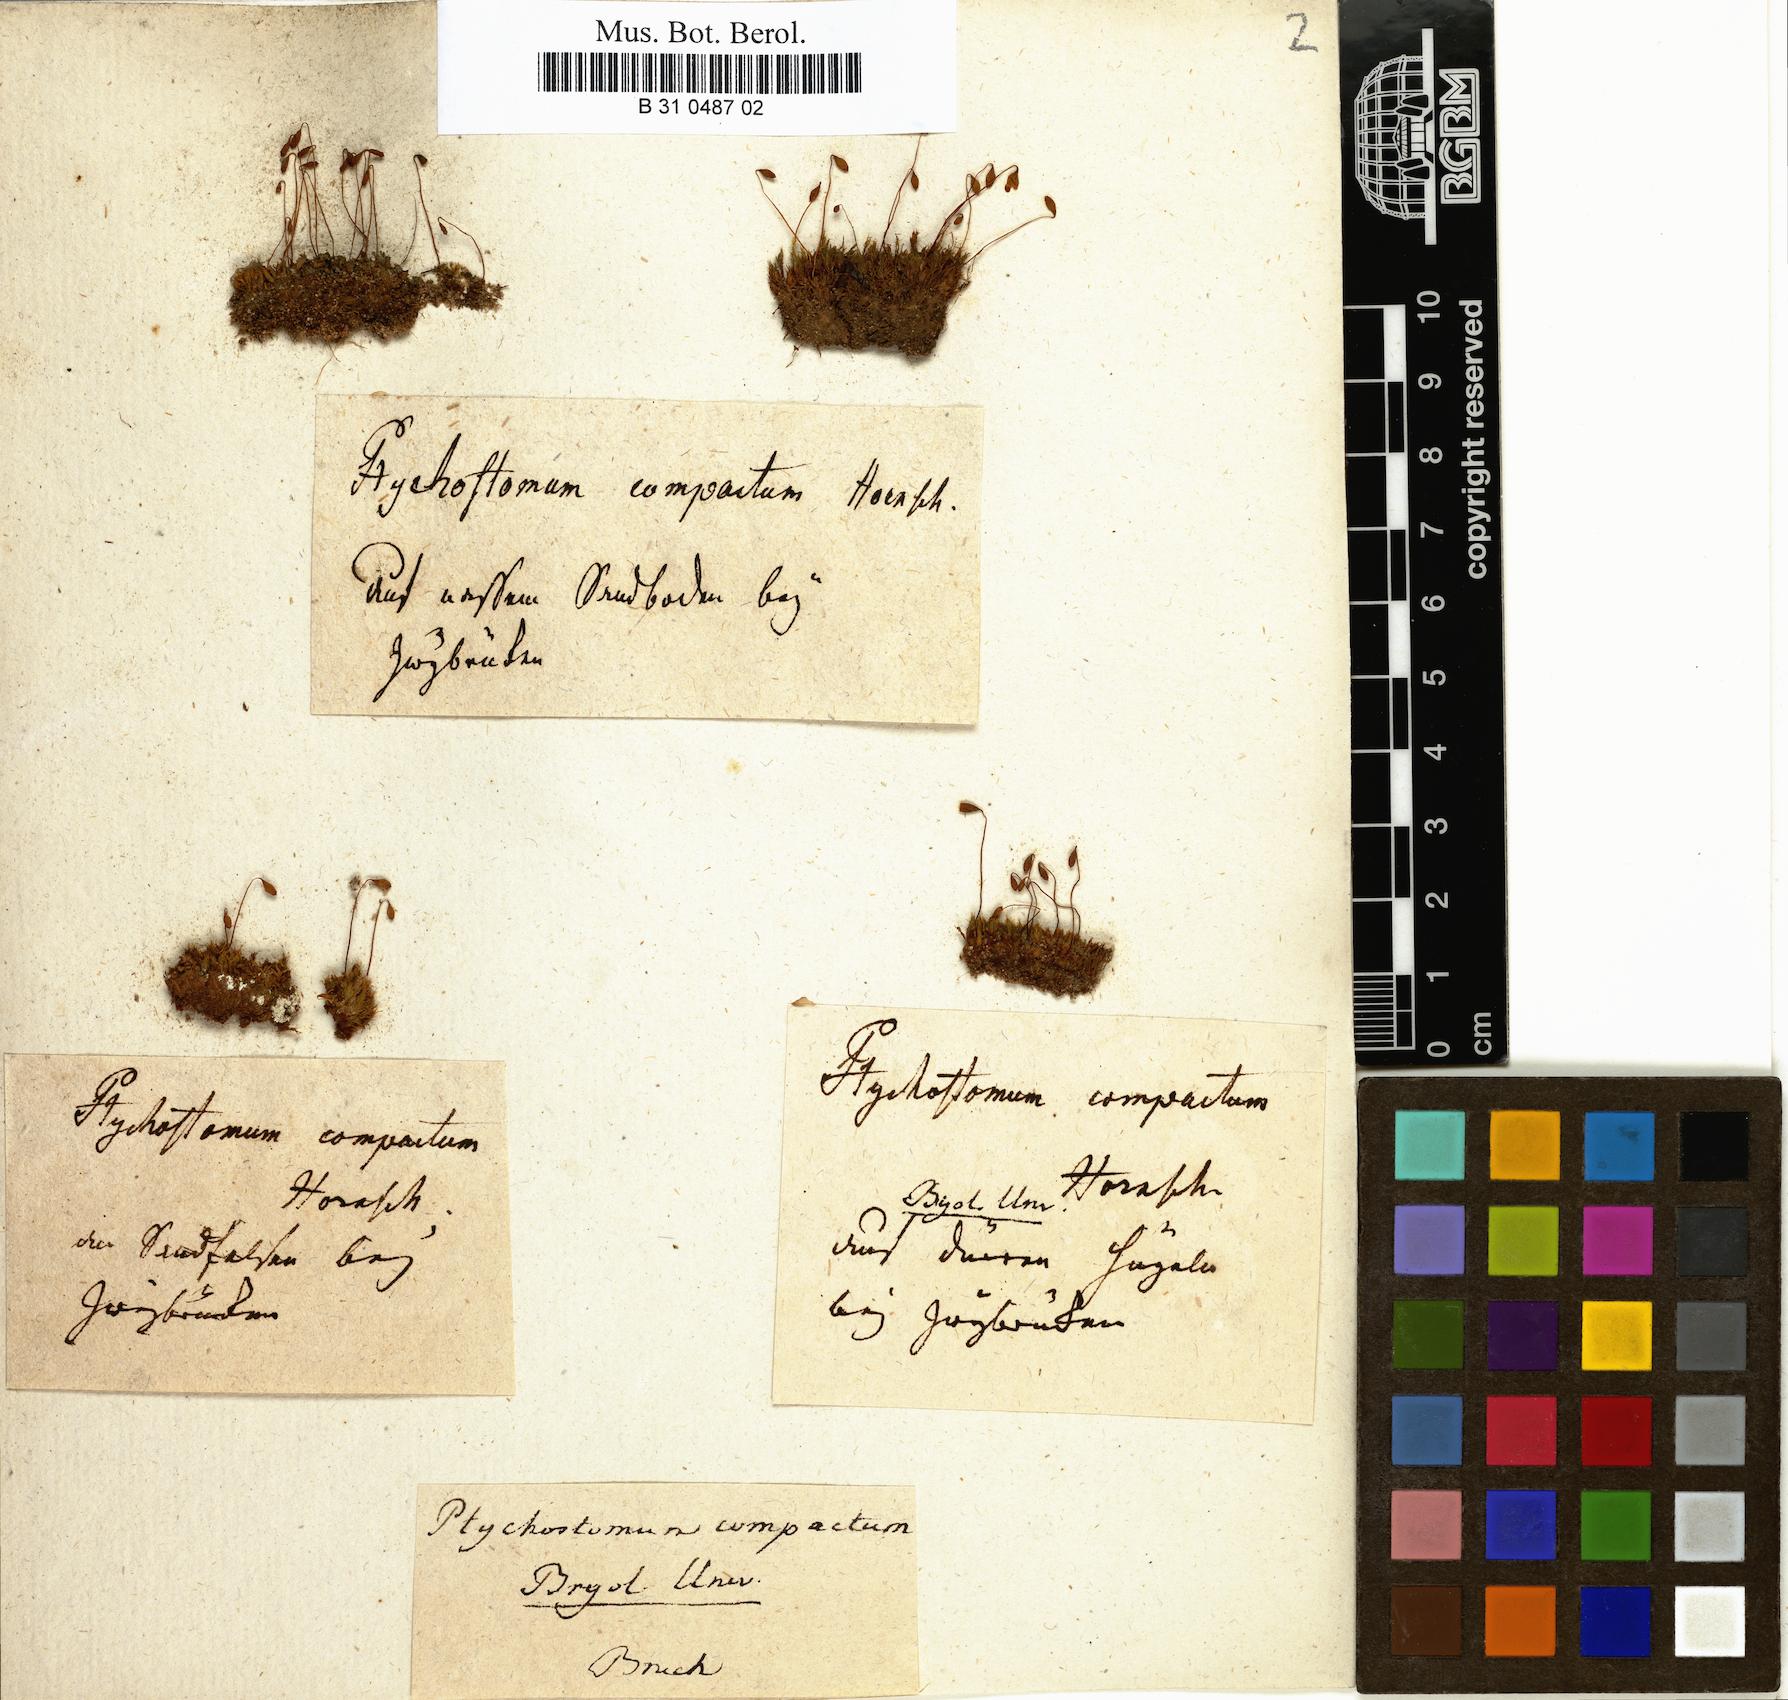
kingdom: Plantae
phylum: Bryophyta
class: Bryopsida
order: Bryales
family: Bryaceae
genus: Ptychostomum
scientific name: Ptychostomum compactum
